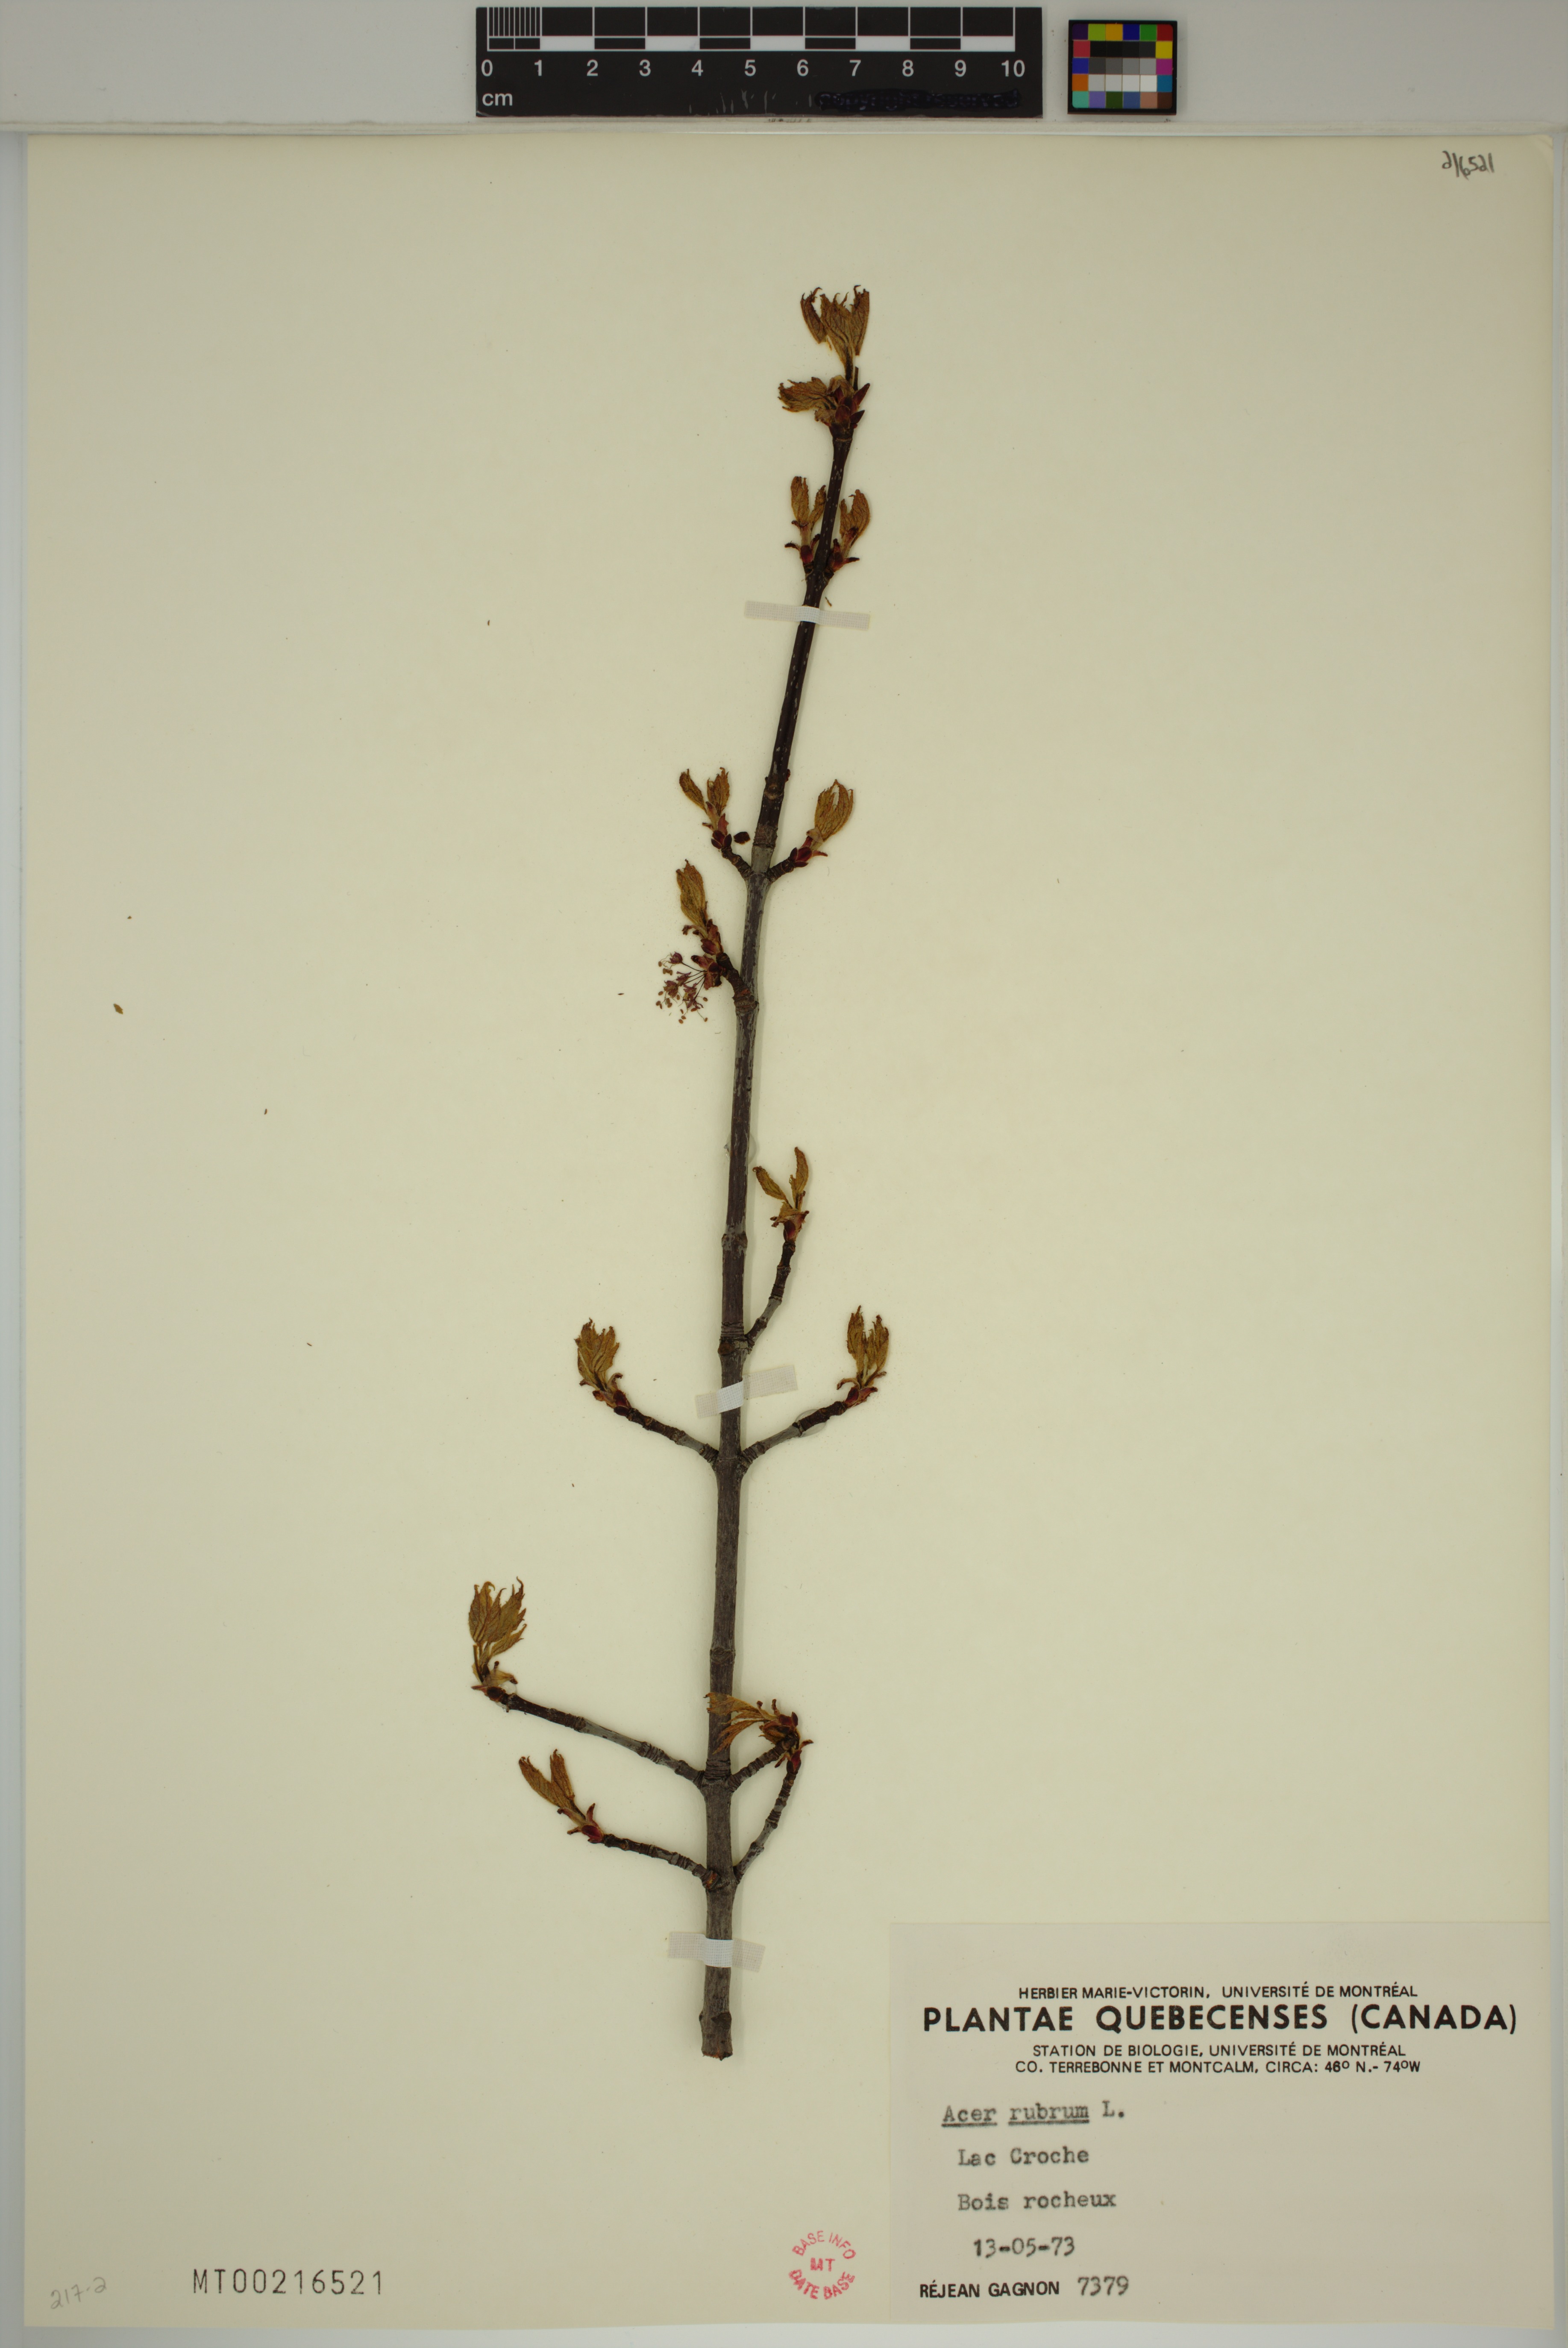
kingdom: Plantae
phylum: Tracheophyta
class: Magnoliopsida
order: Sapindales
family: Sapindaceae
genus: Acer
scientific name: Acer rubrum
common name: Red maple
